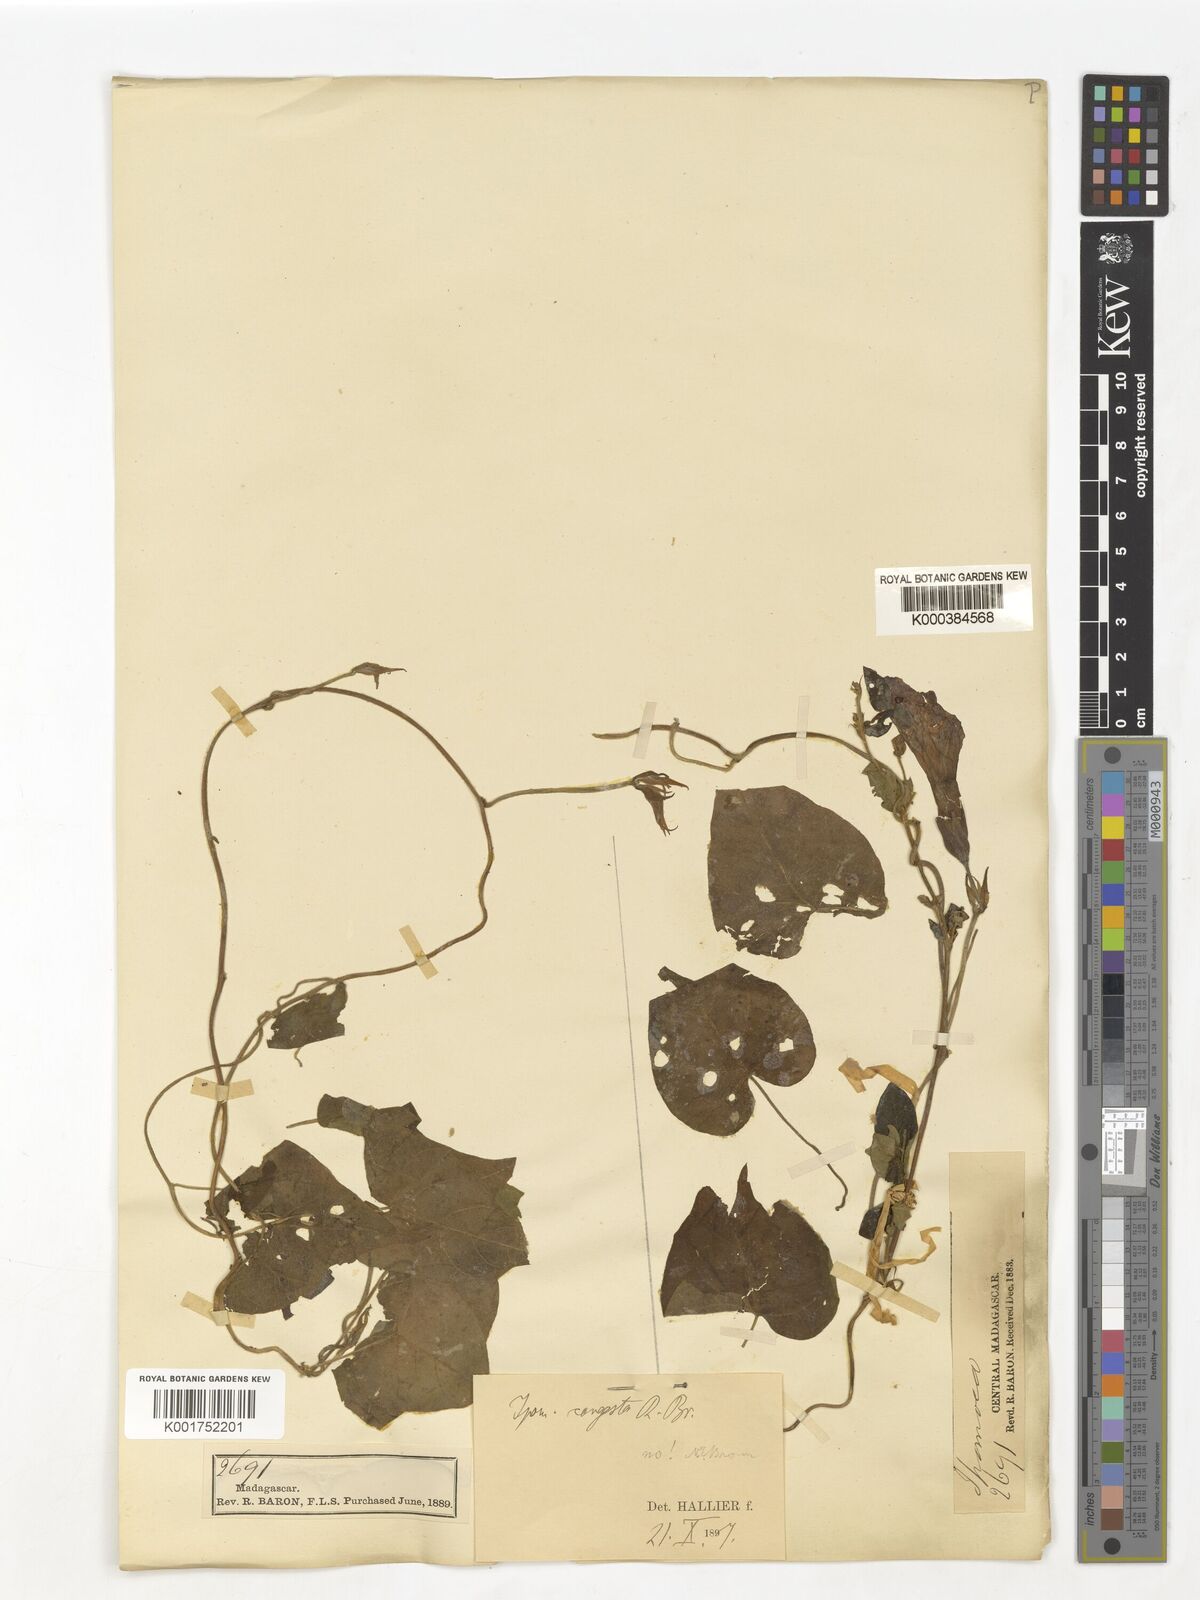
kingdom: Plantae
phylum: Tracheophyta
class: Magnoliopsida
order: Solanales
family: Convolvulaceae
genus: Ipomoea
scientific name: Ipomoea indica
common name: Blue dawnflower
